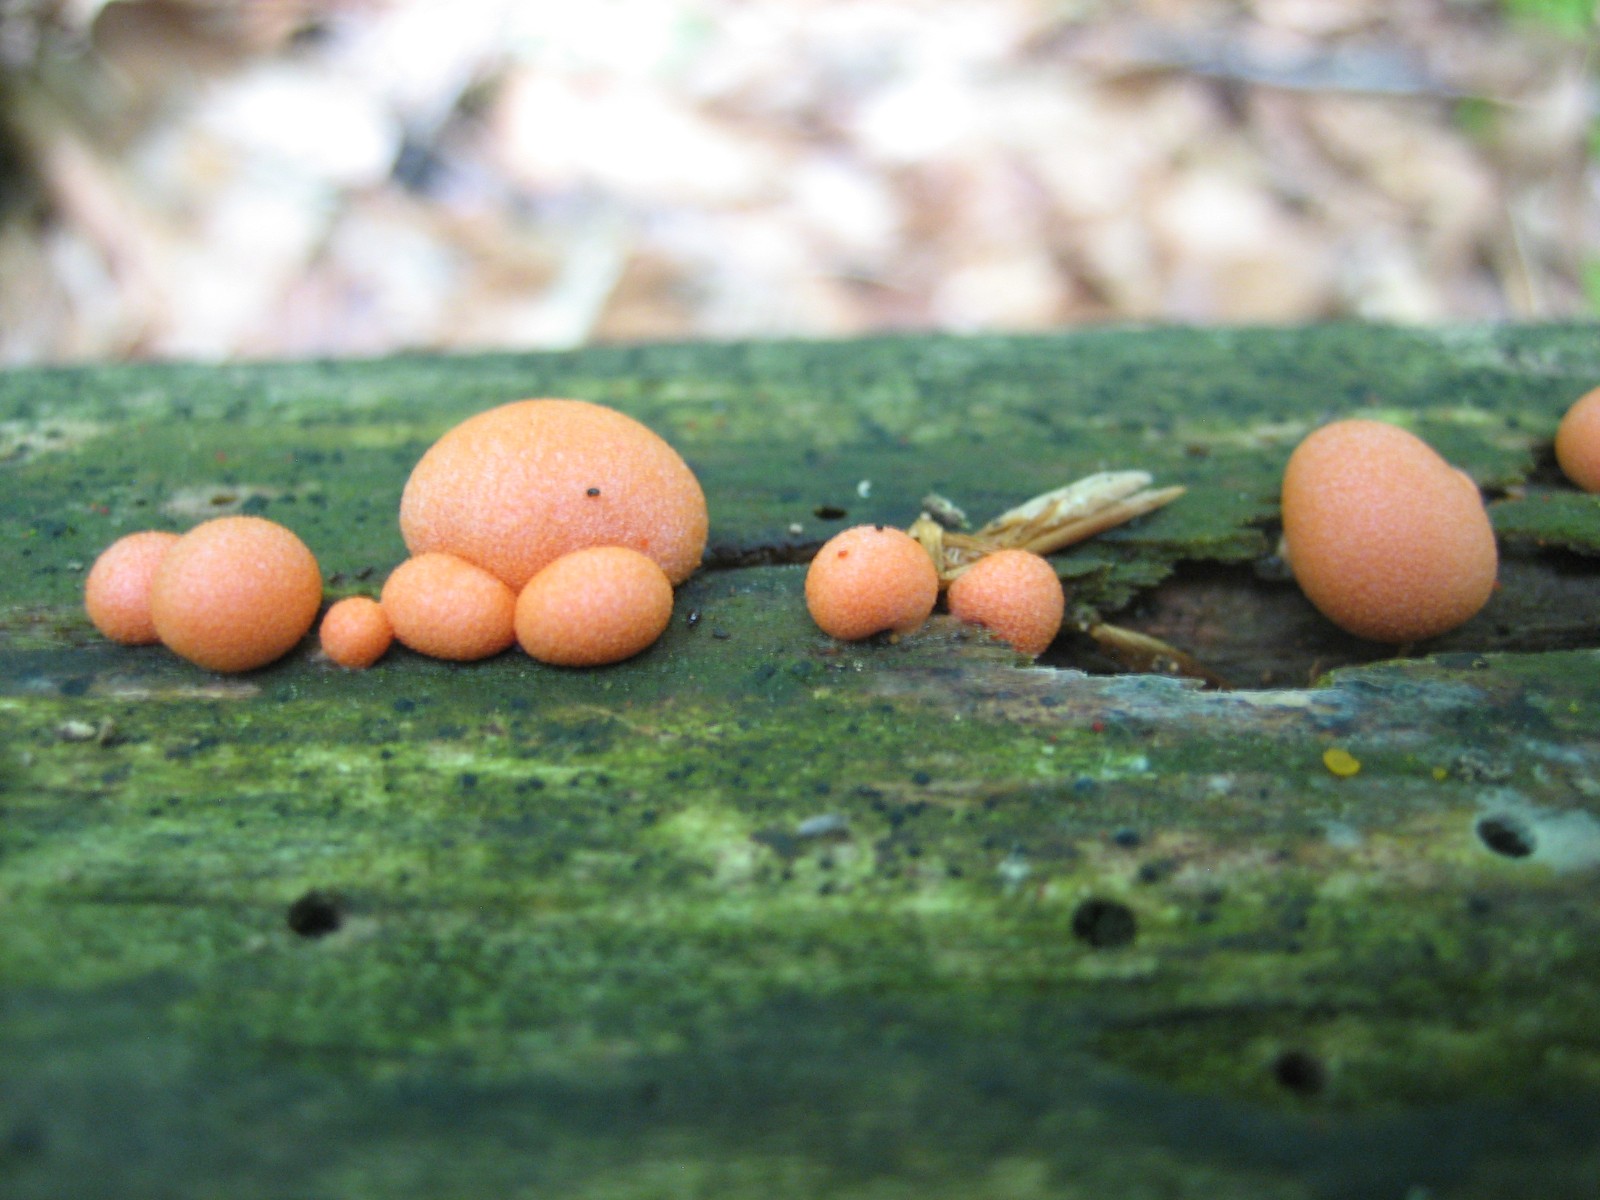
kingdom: Protozoa
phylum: Mycetozoa
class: Myxomycetes
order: Cribrariales
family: Tubiferaceae
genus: Lycogala
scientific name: Lycogala epidendrum
